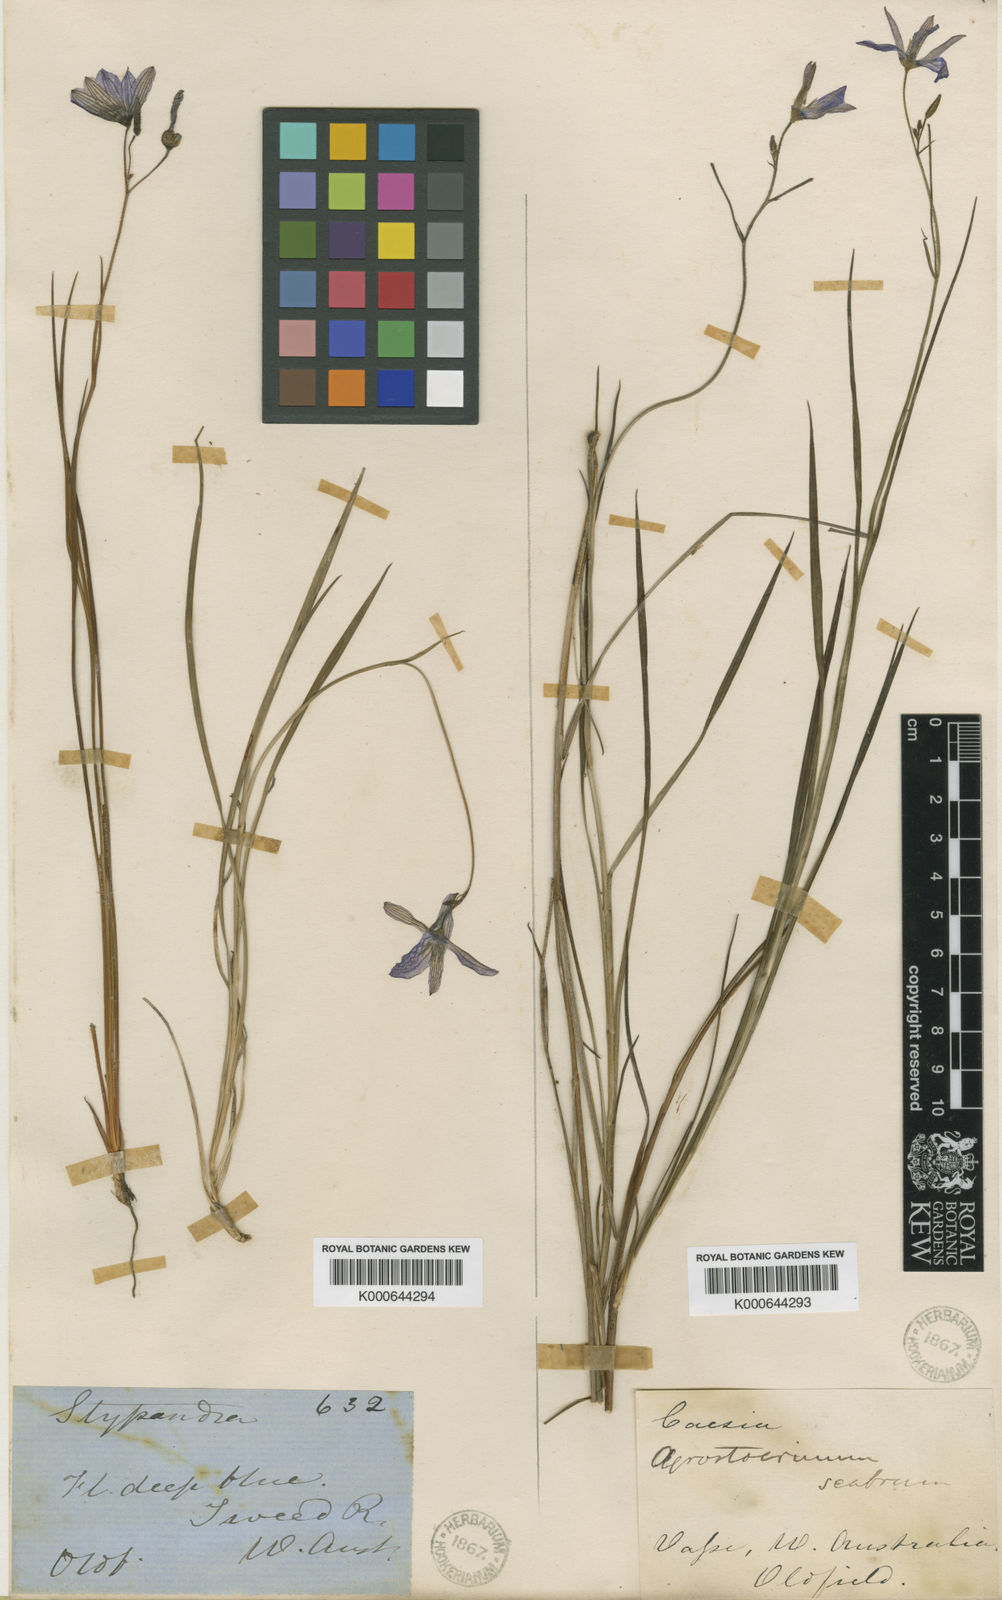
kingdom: Plantae
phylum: Tracheophyta
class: Liliopsida
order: Asparagales
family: Asphodelaceae
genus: Agrostocrinum
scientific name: Agrostocrinum scabrum
